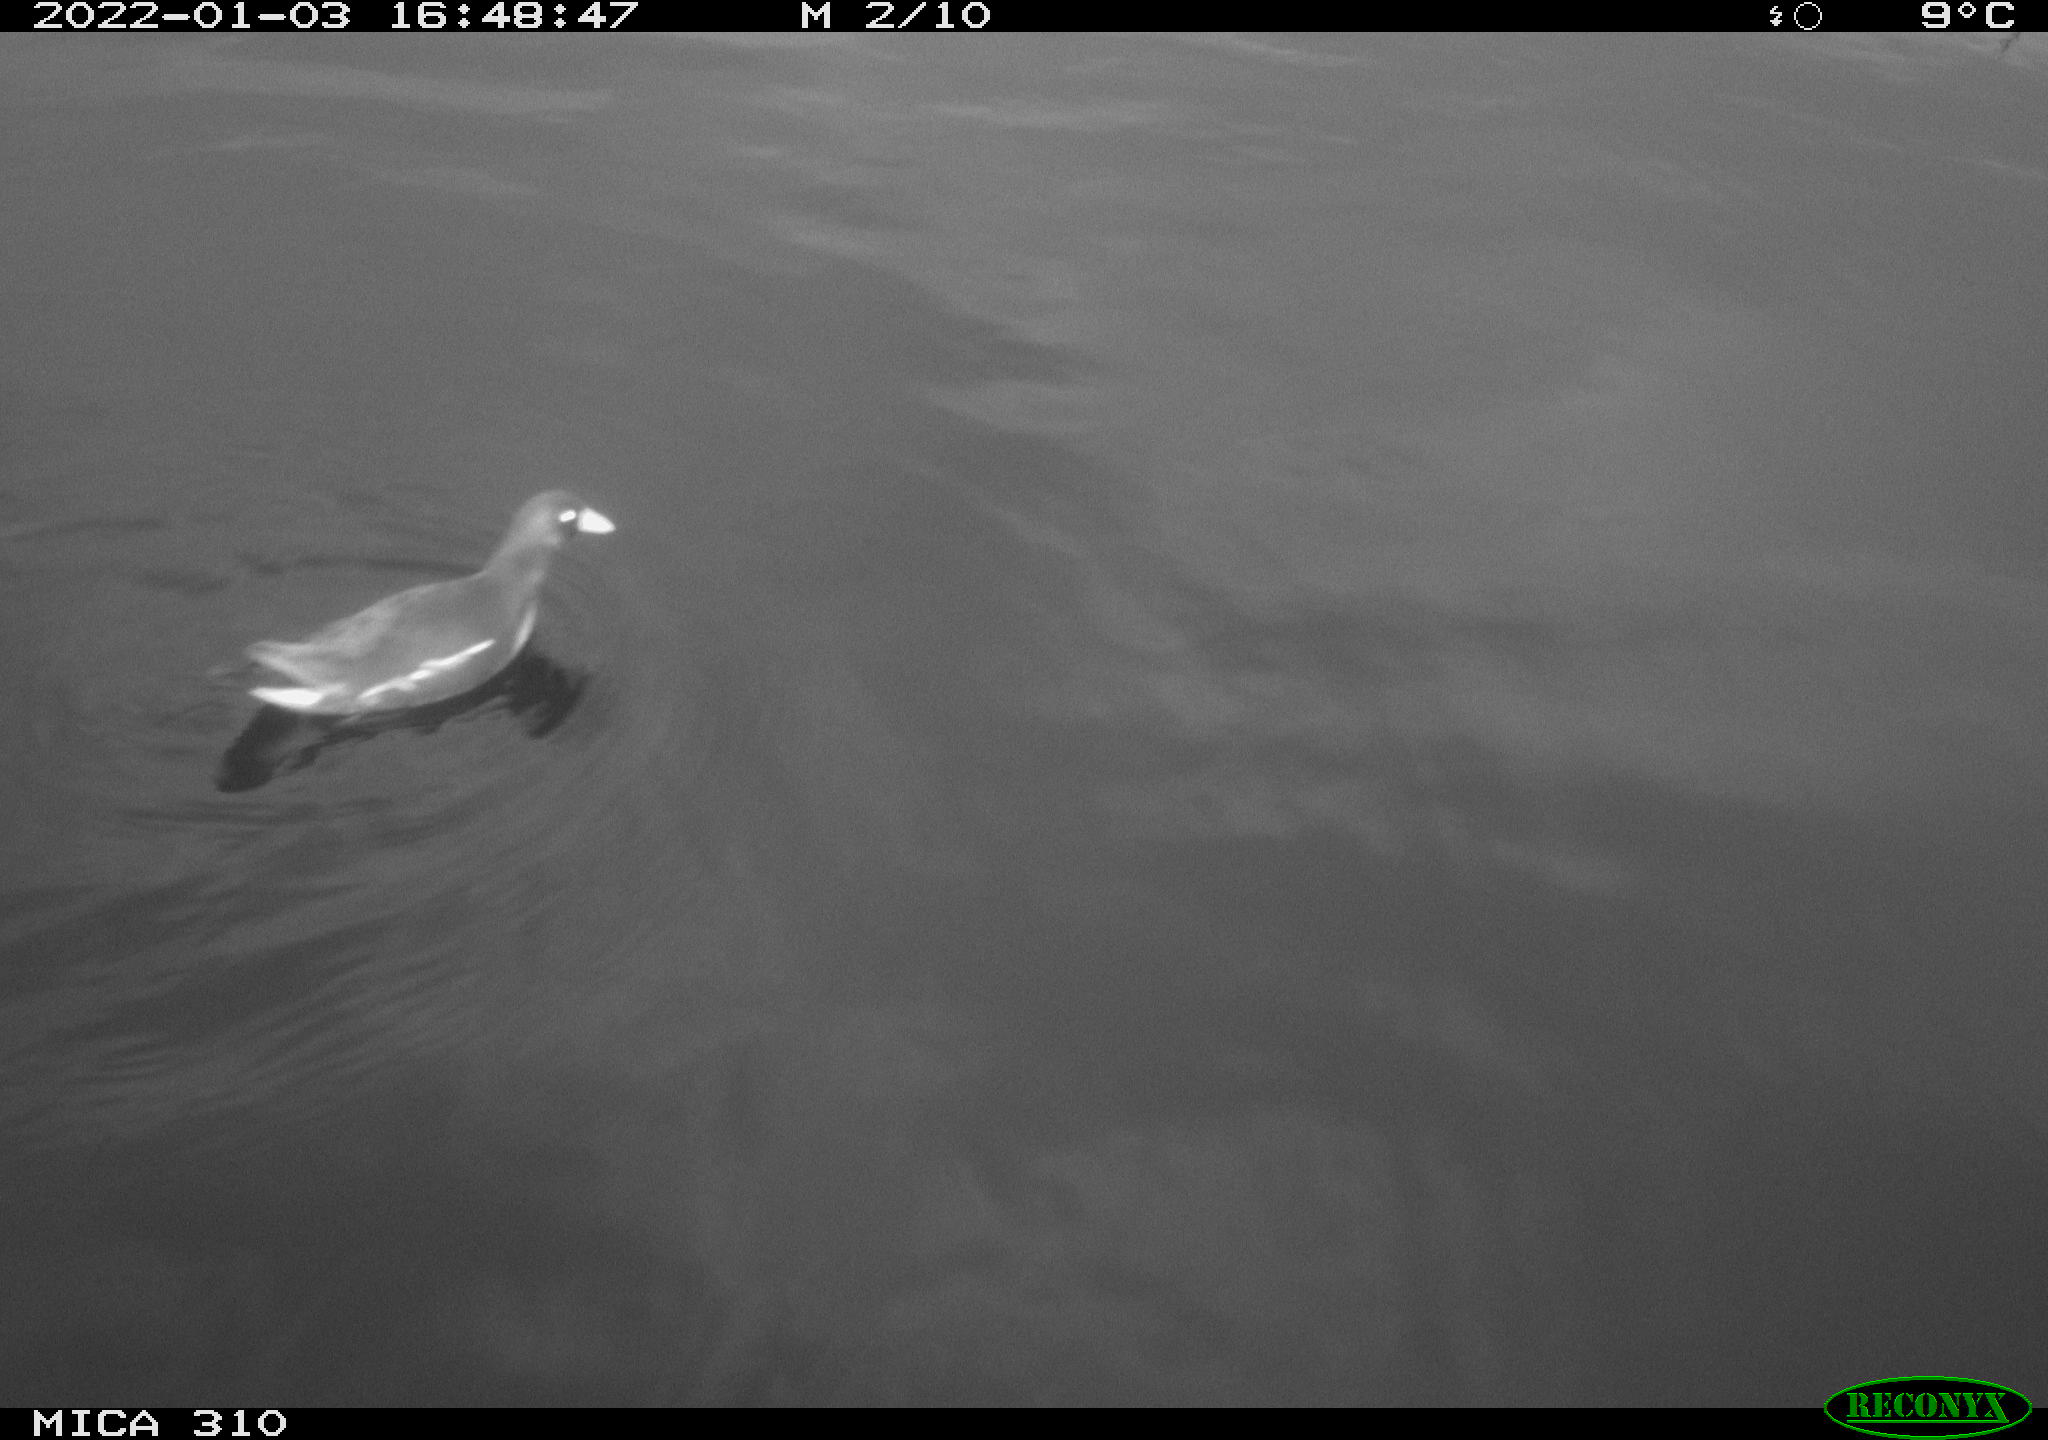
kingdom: Animalia
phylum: Chordata
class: Aves
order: Gruiformes
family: Rallidae
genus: Gallinula
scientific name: Gallinula chloropus
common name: Common moorhen
